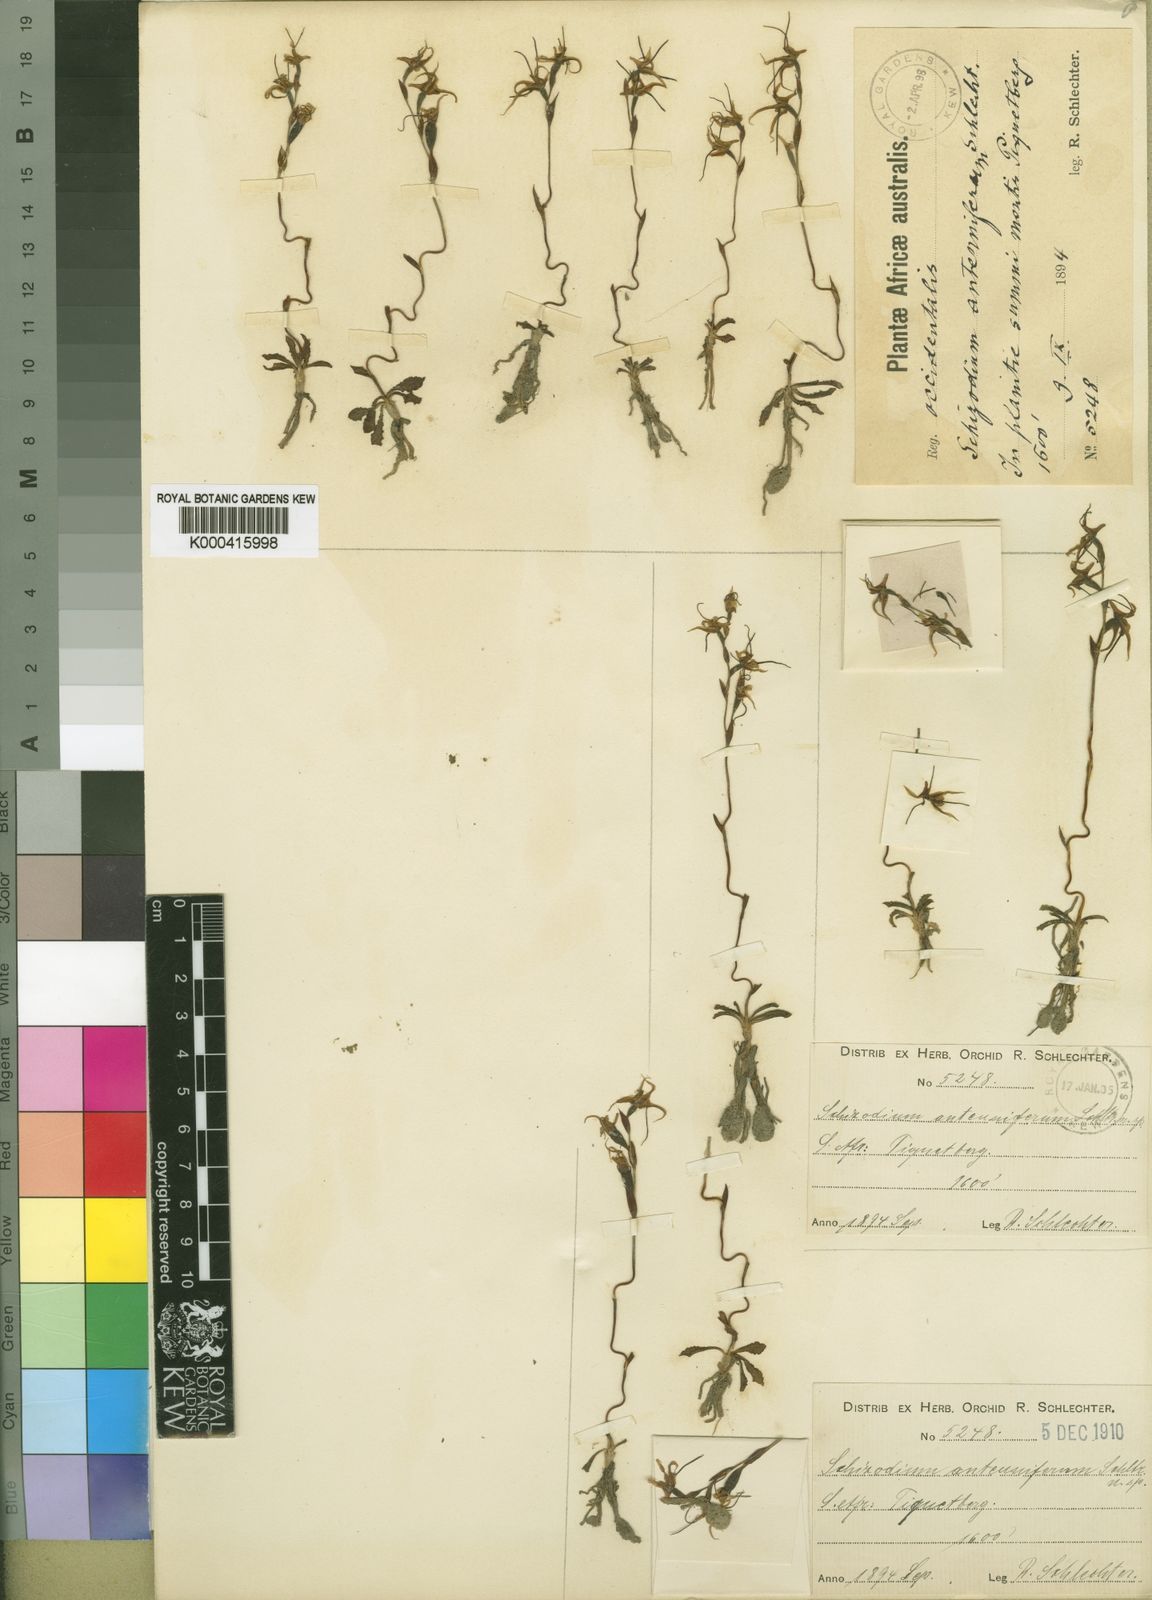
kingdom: Plantae
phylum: Tracheophyta
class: Liliopsida
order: Asparagales
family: Orchidaceae
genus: Disa
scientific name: Disa longipetala
